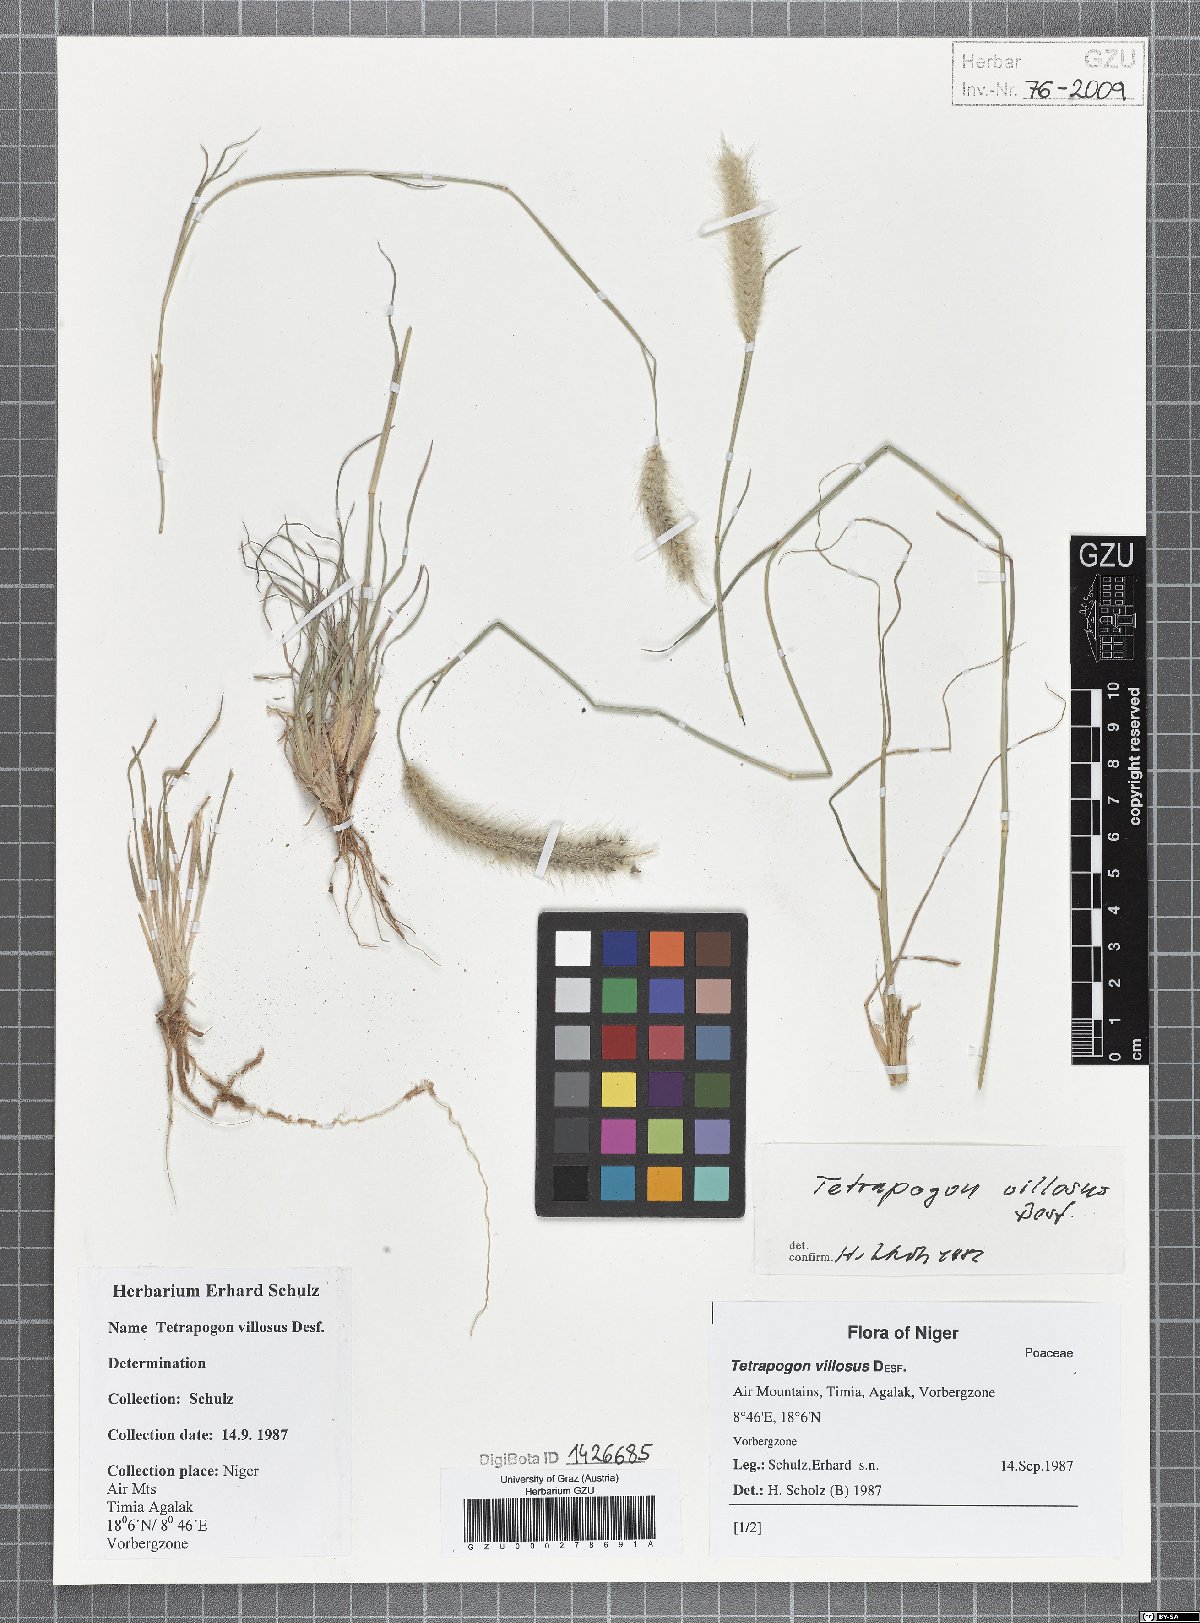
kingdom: Plantae
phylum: Tracheophyta
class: Liliopsida
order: Poales
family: Poaceae
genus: Tetrapogon
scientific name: Tetrapogon villosus
